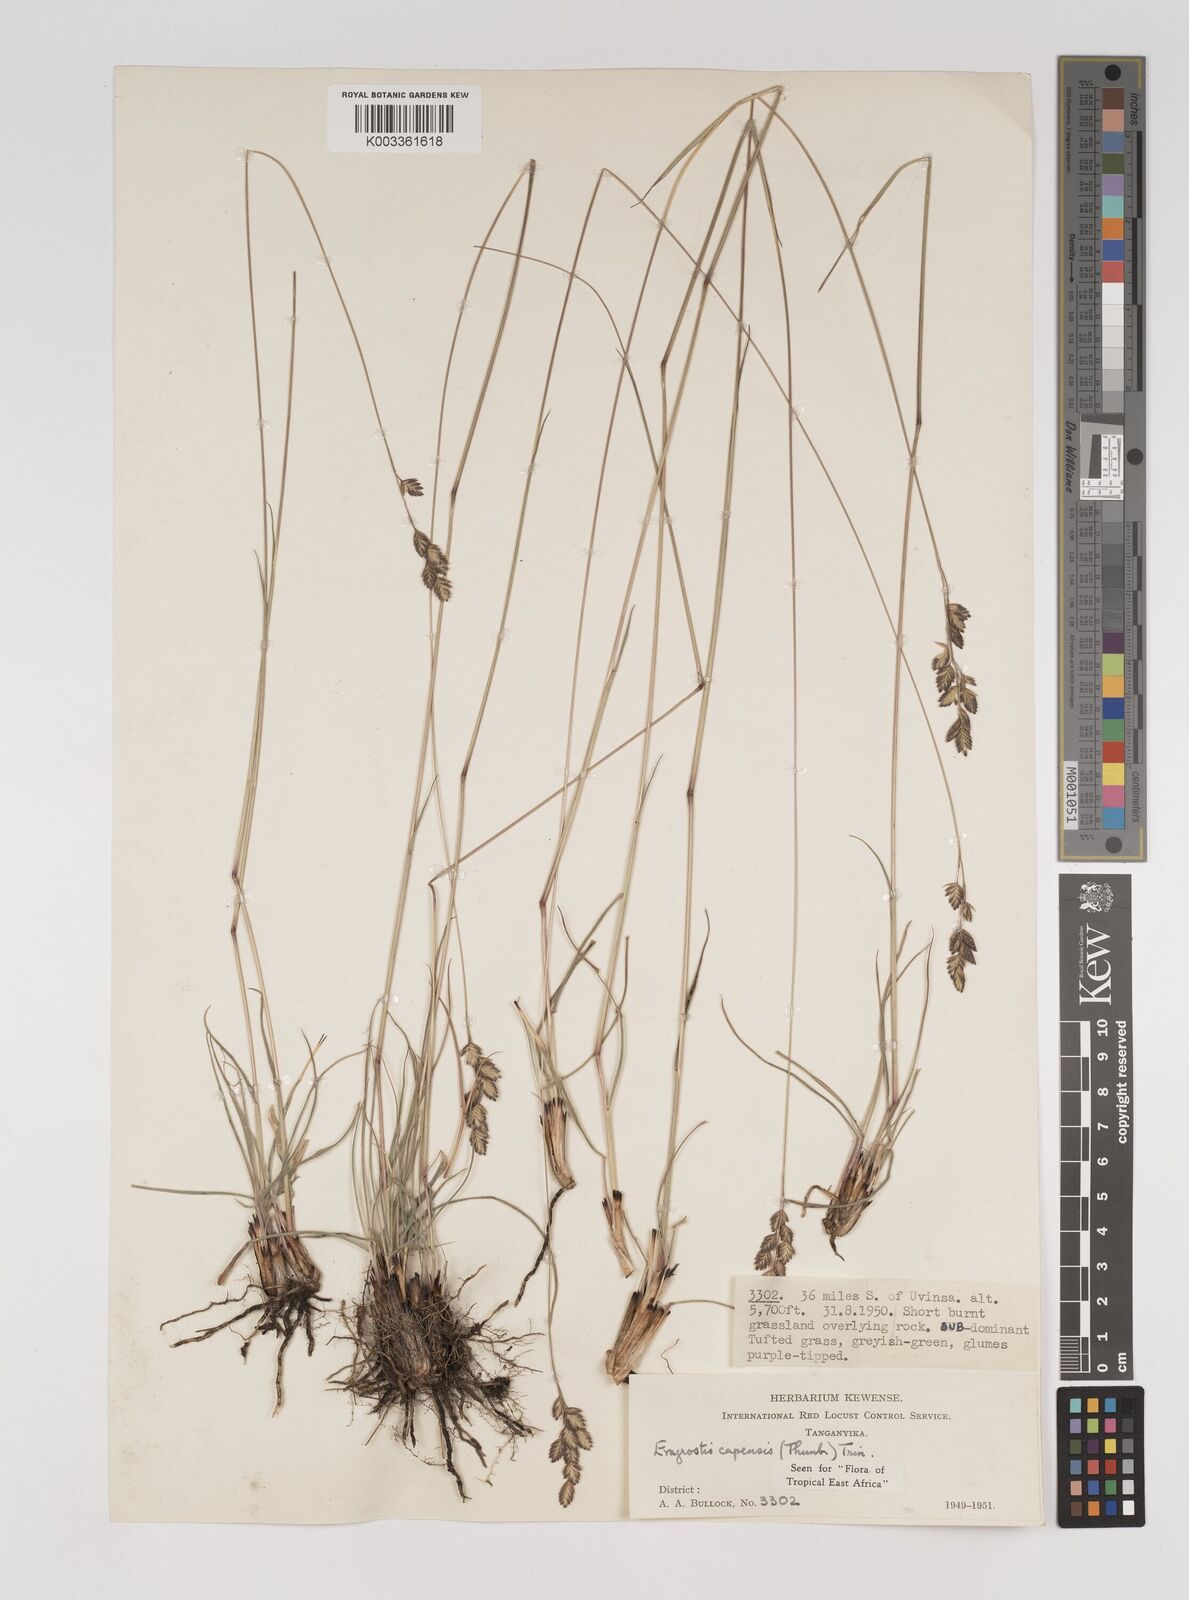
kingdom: Plantae
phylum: Tracheophyta
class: Liliopsida
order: Poales
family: Poaceae
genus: Eragrostis
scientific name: Eragrostis capensis
